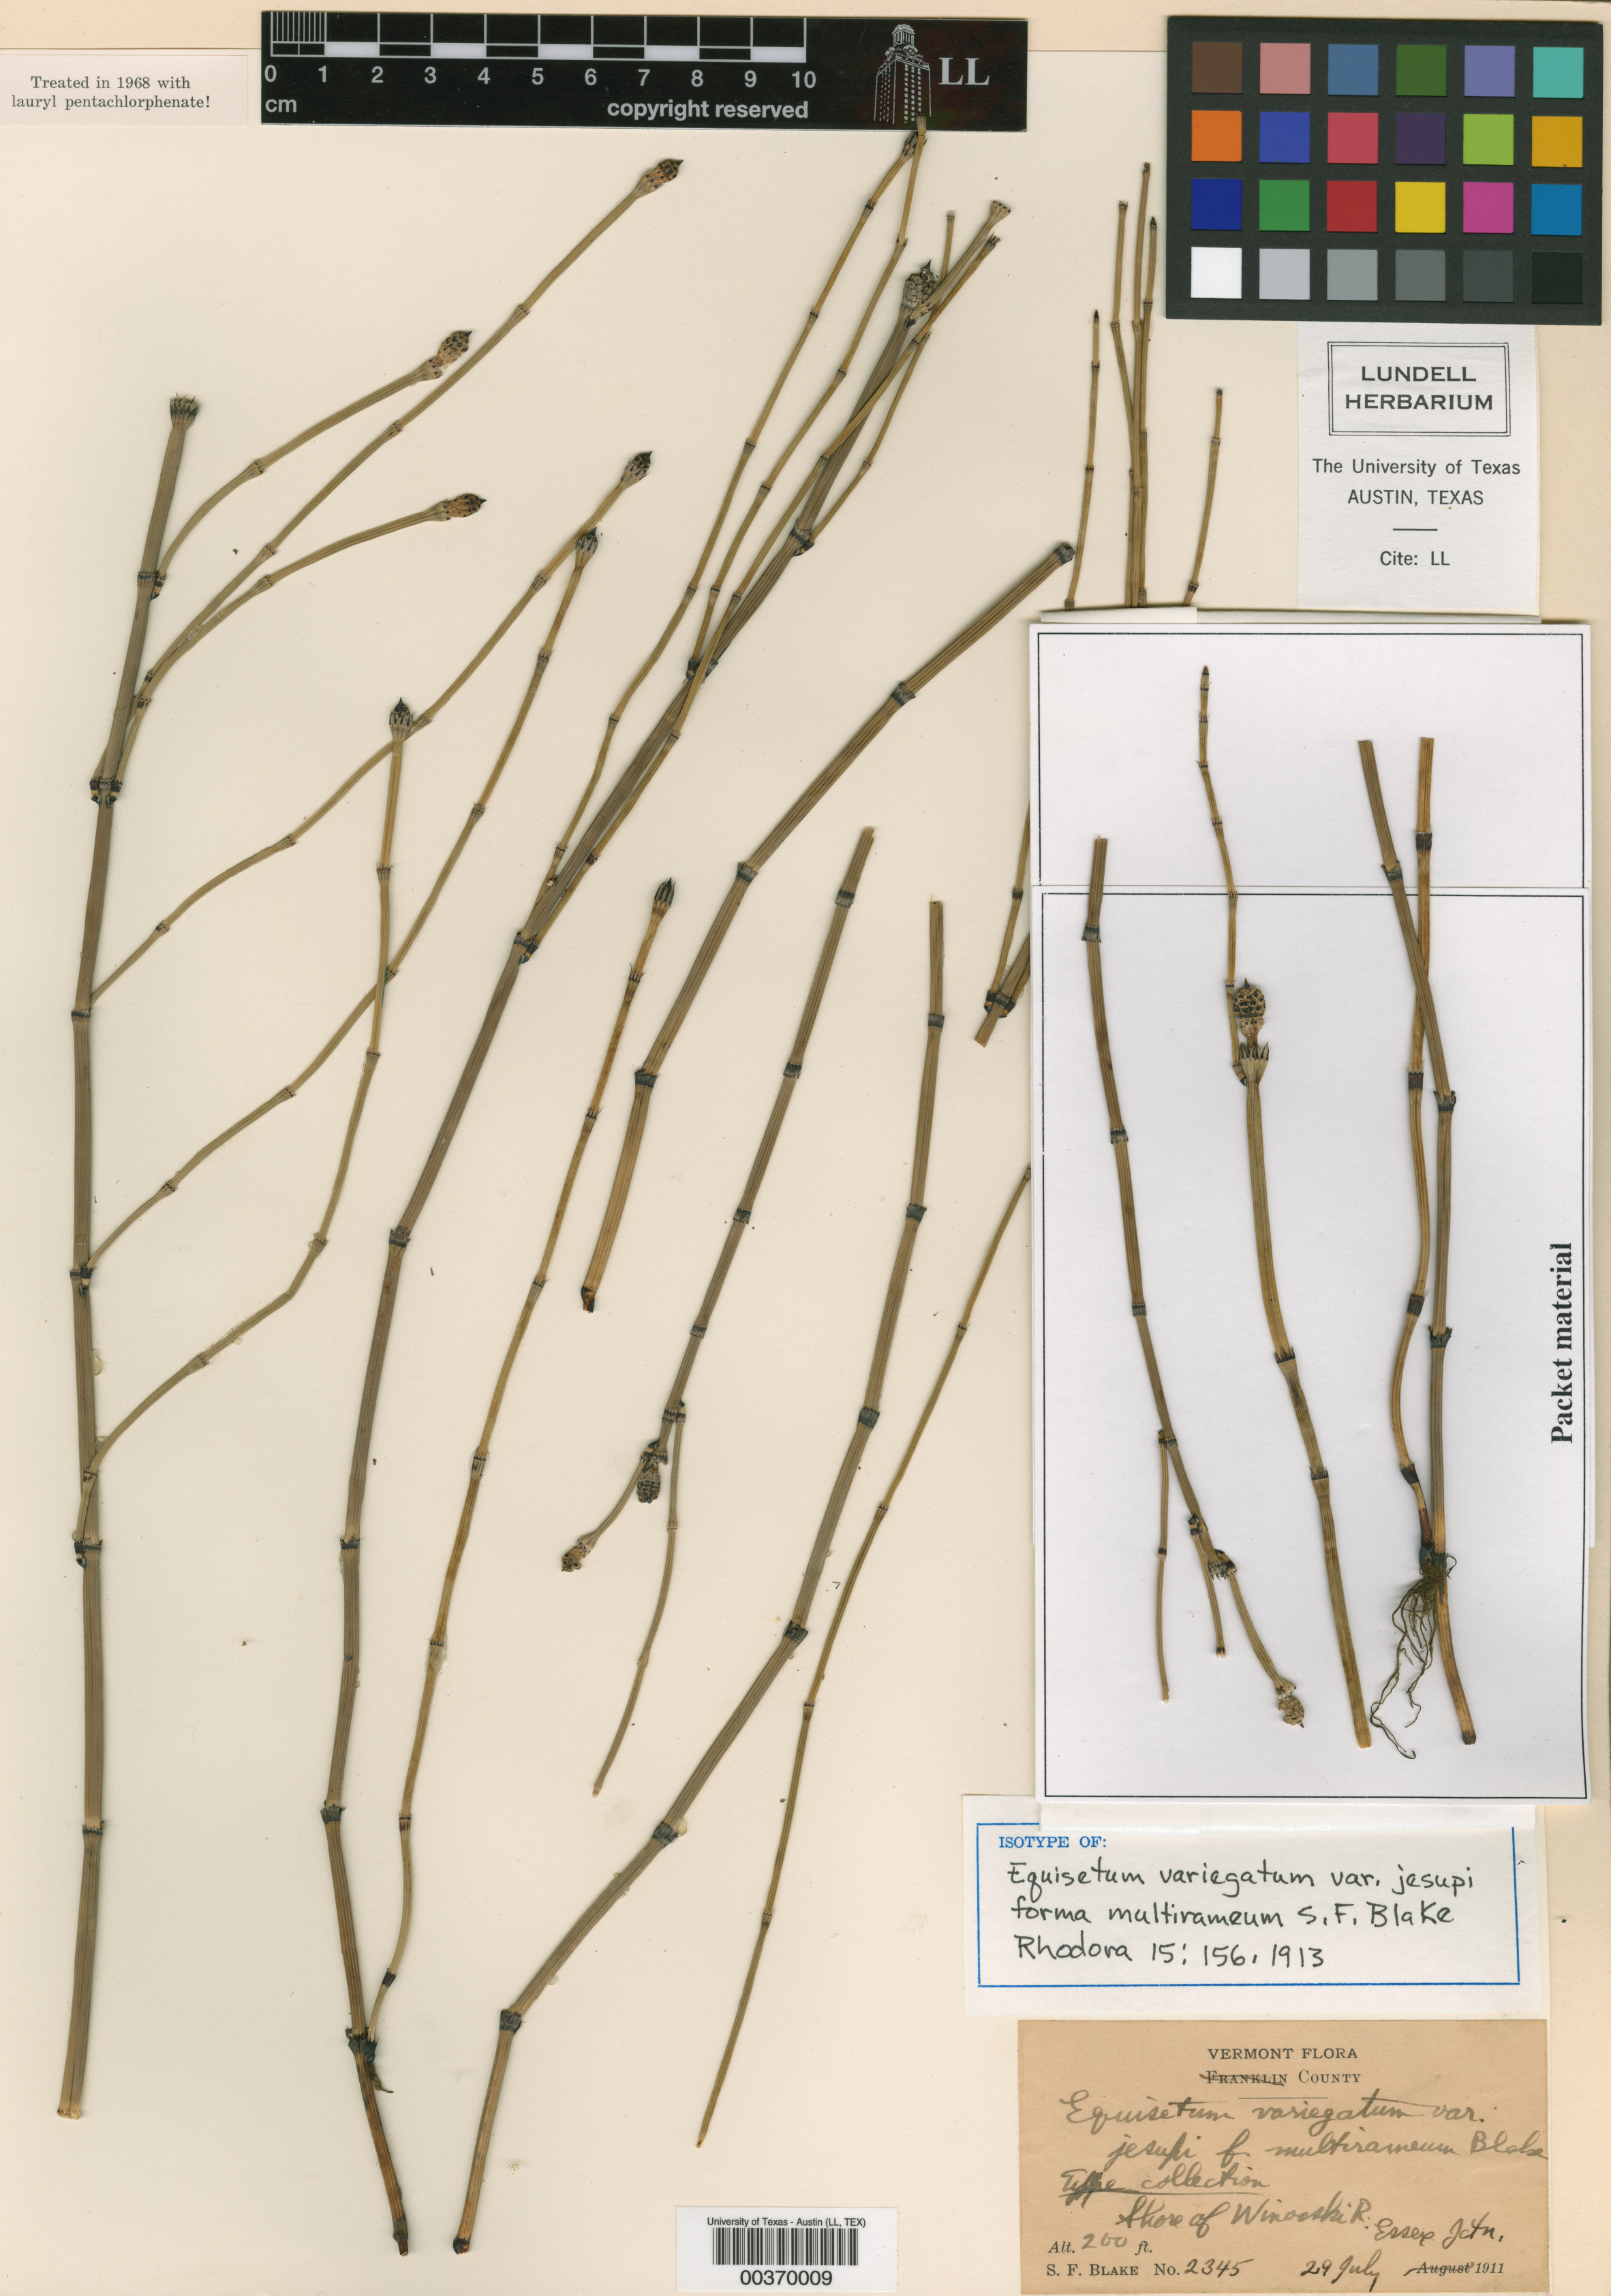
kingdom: Plantae
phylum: Tracheophyta
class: Magnoliopsida
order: Malpighiales
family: Hypericaceae
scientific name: Hypericaceae
